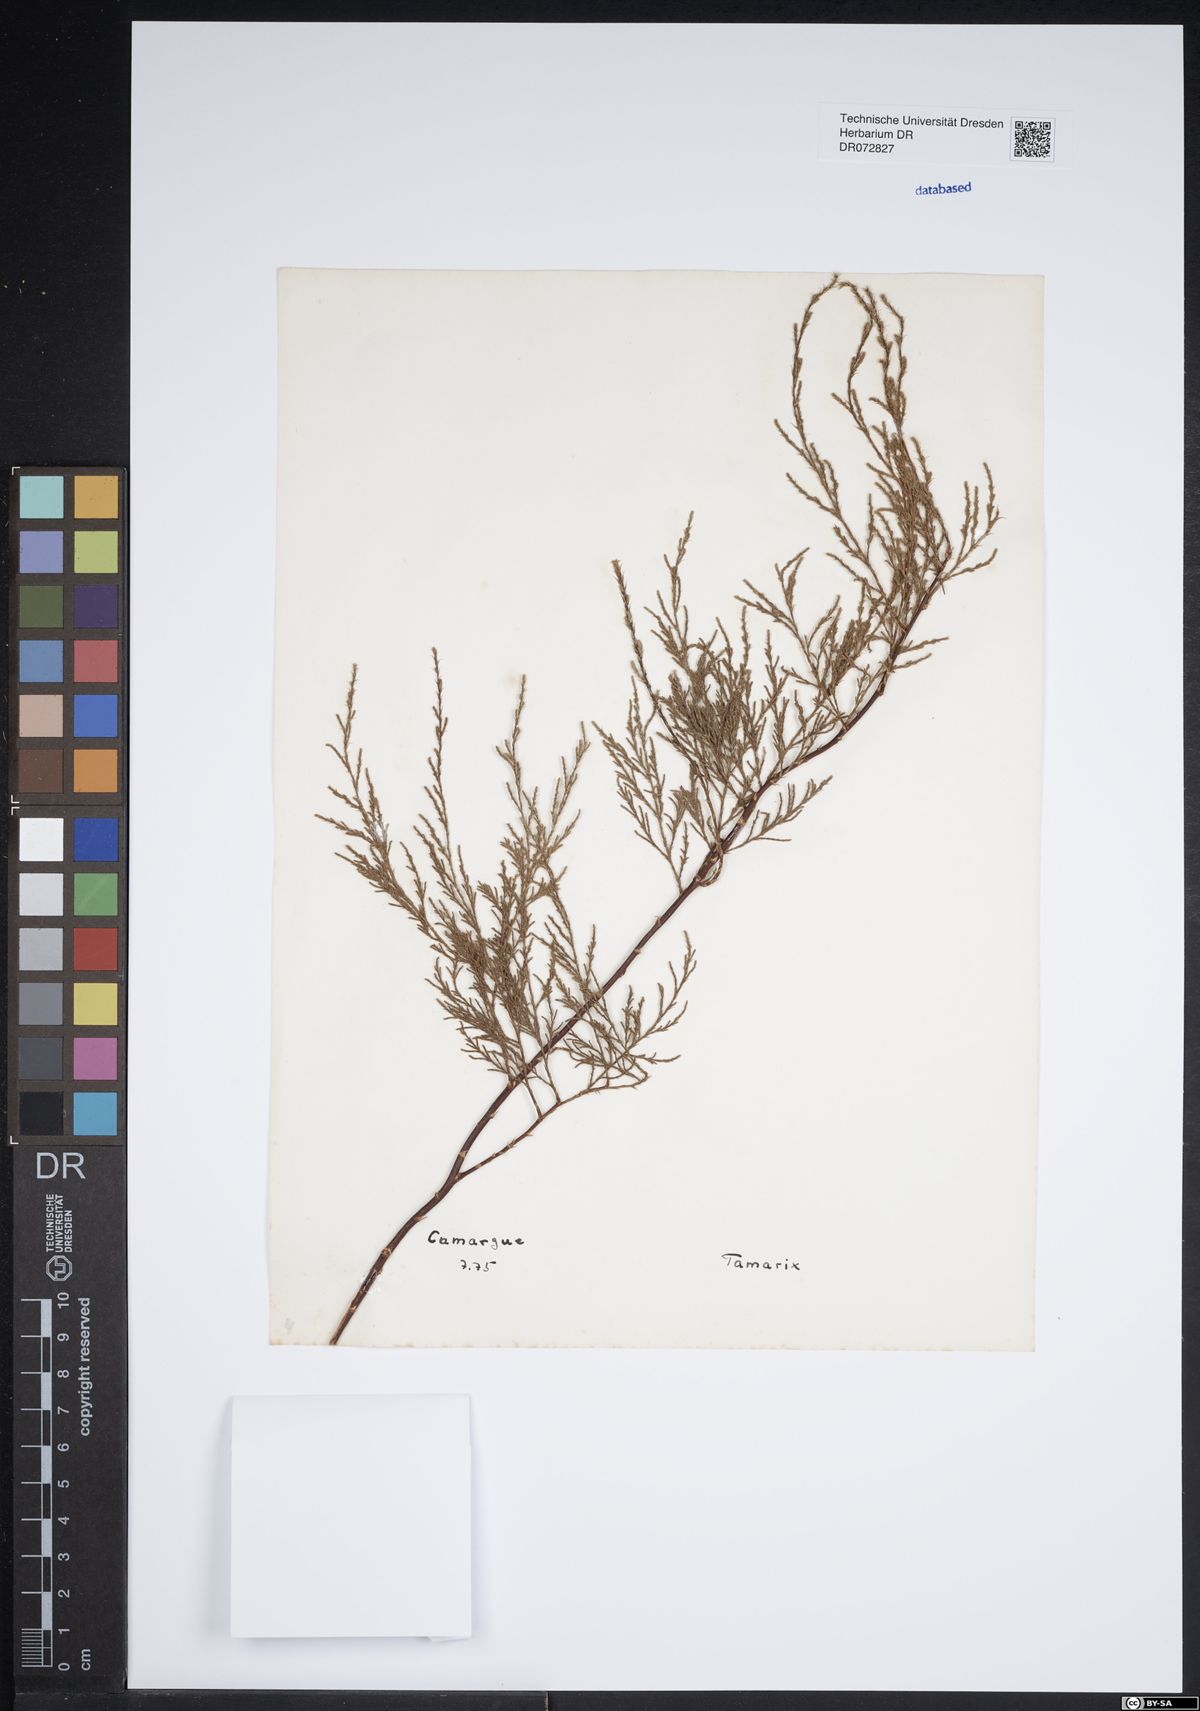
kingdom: Plantae
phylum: Tracheophyta
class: Magnoliopsida
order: Caryophyllales
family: Tamaricaceae
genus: Tamarix
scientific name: Tamarix
